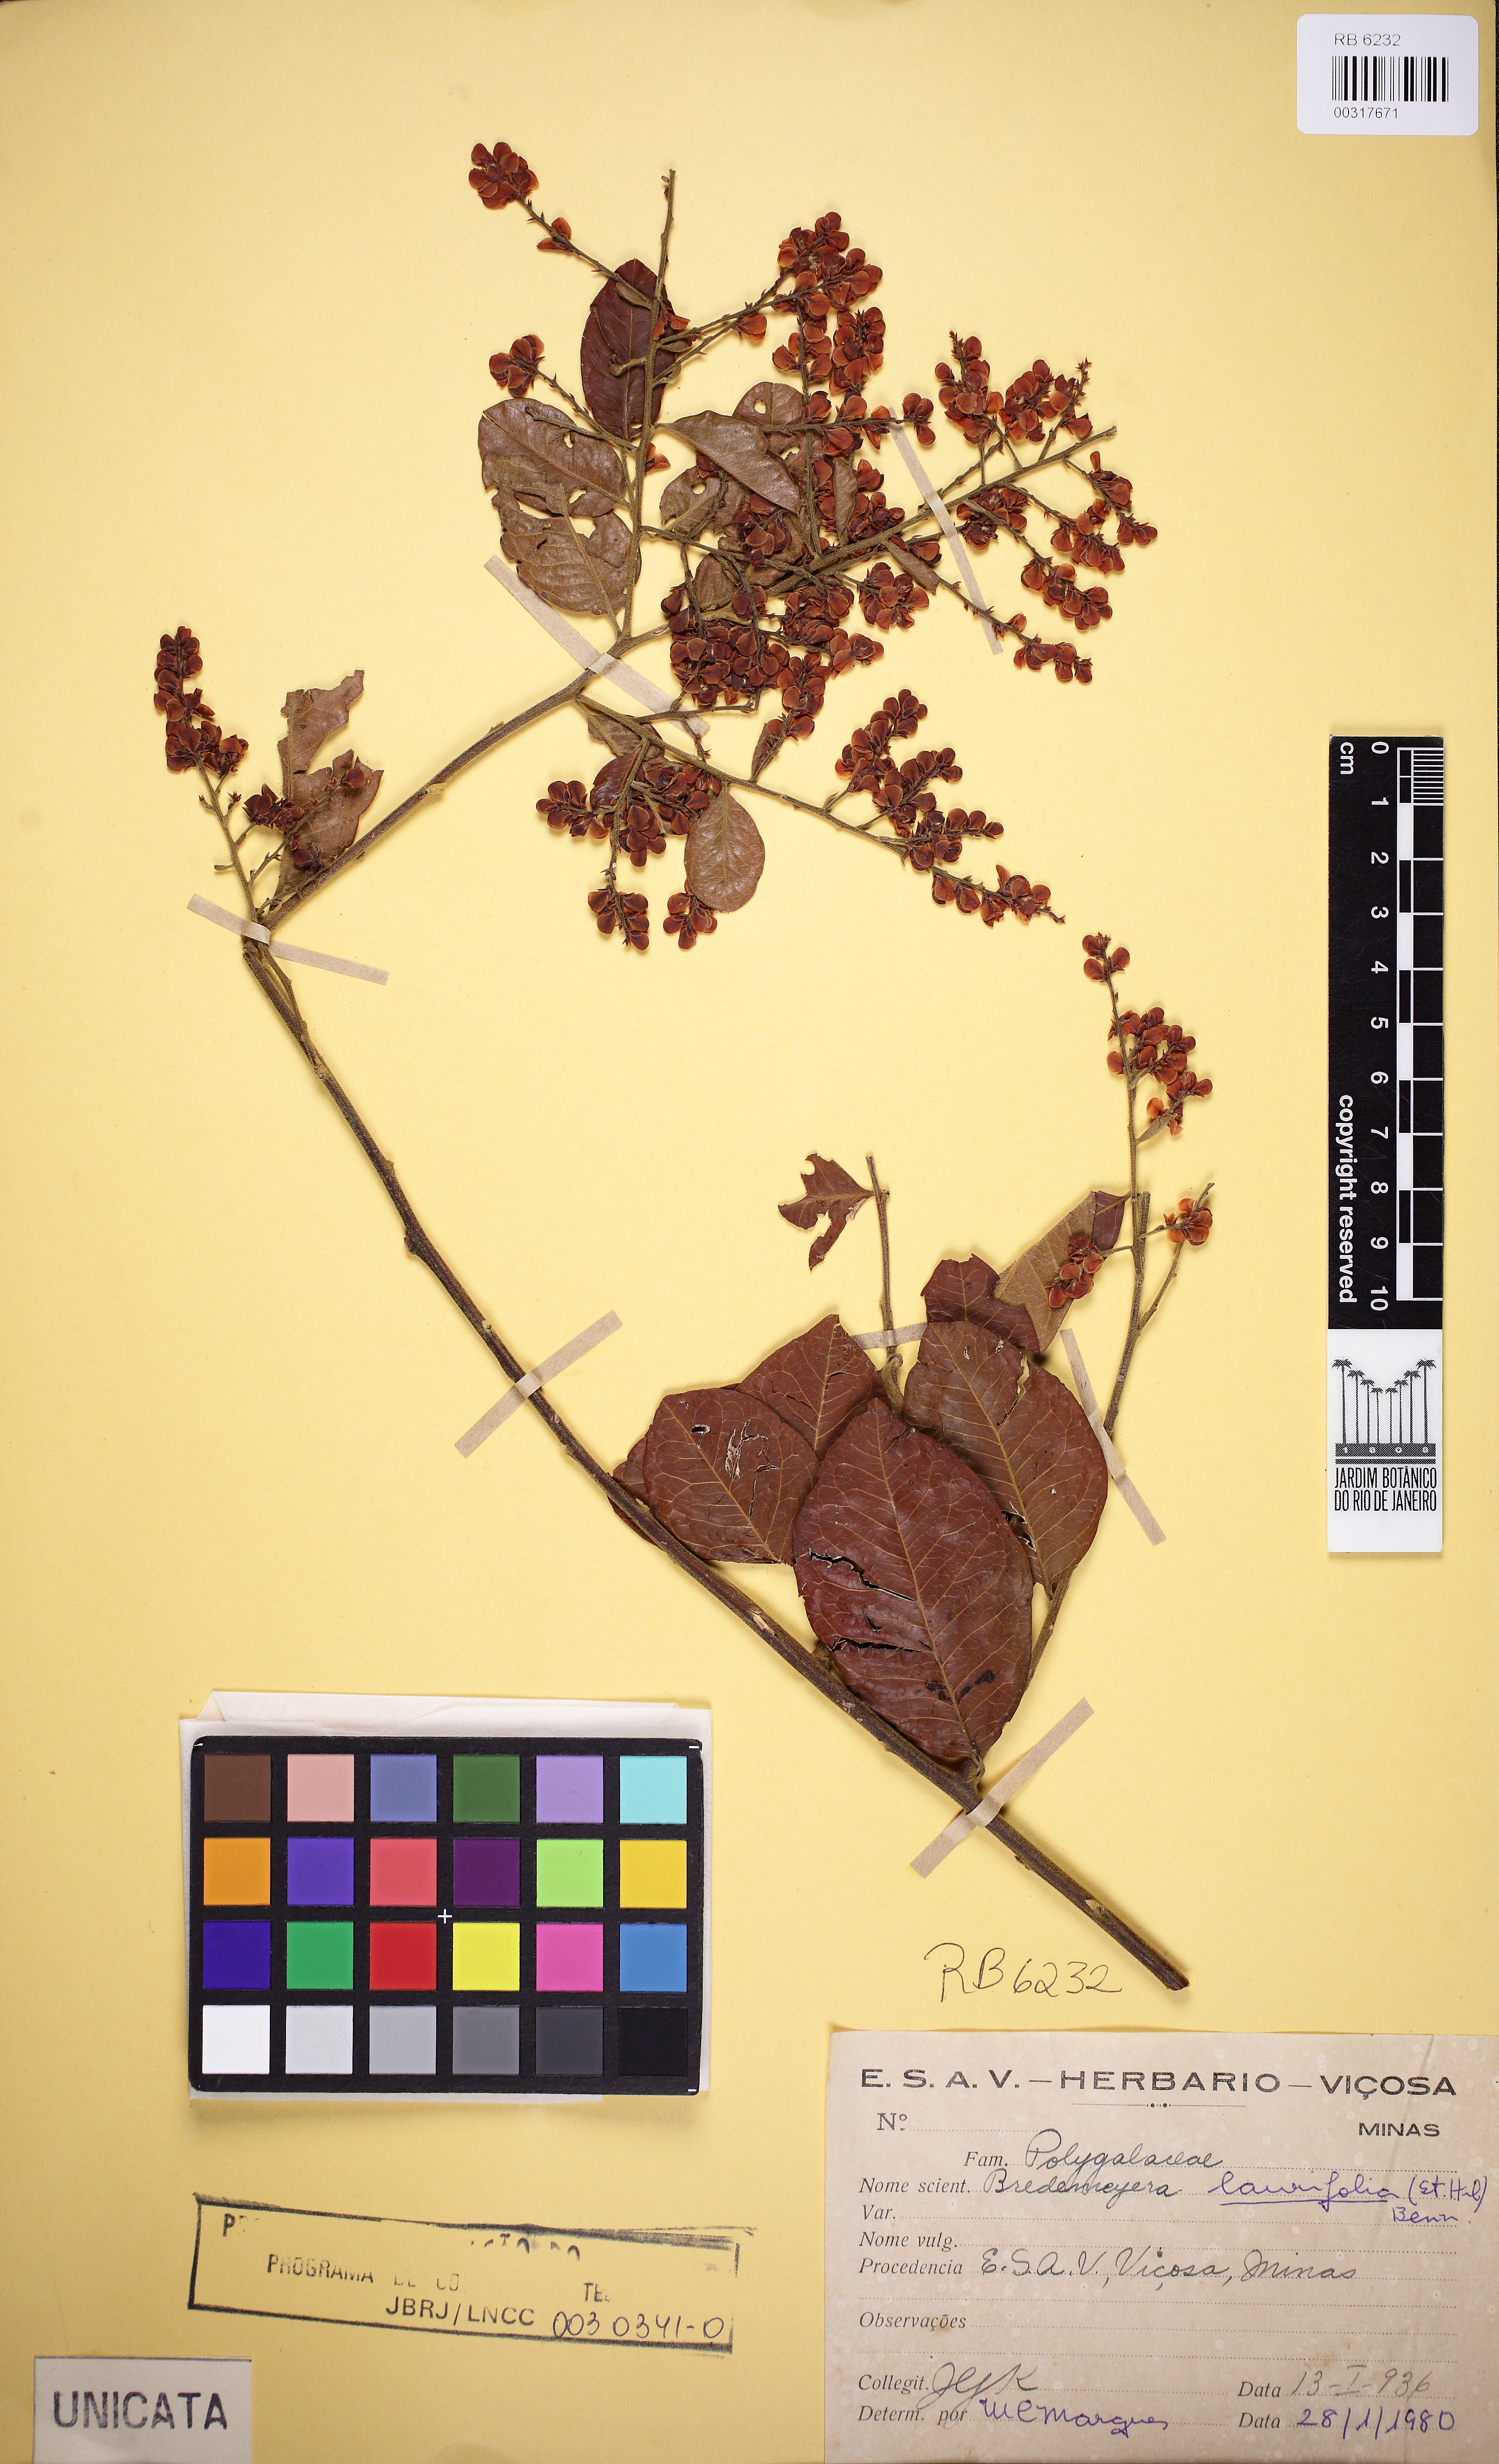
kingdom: Plantae
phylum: Tracheophyta
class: Magnoliopsida
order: Fabales
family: Polygalaceae
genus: Bredemeyera
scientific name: Bredemeyera laurifolia
